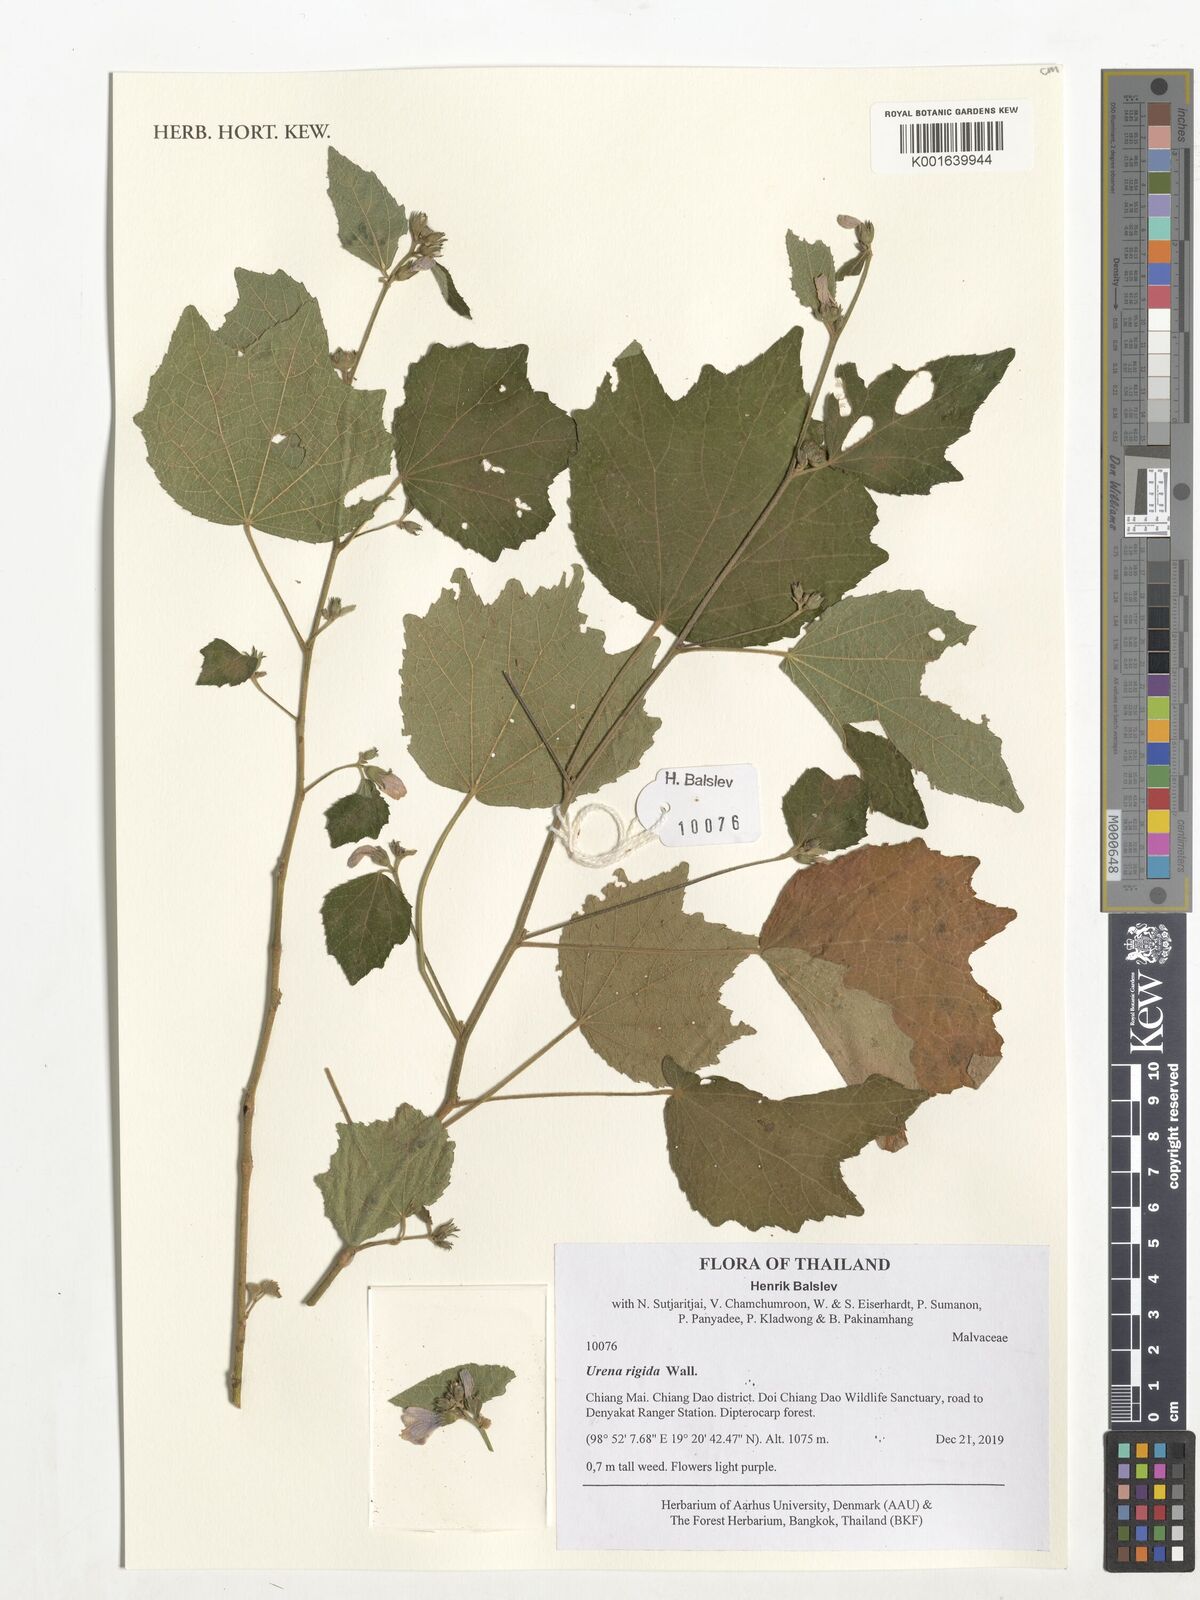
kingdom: Plantae
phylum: Tracheophyta
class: Magnoliopsida
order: Malvales
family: Malvaceae
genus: Urena
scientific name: Urena repanda
